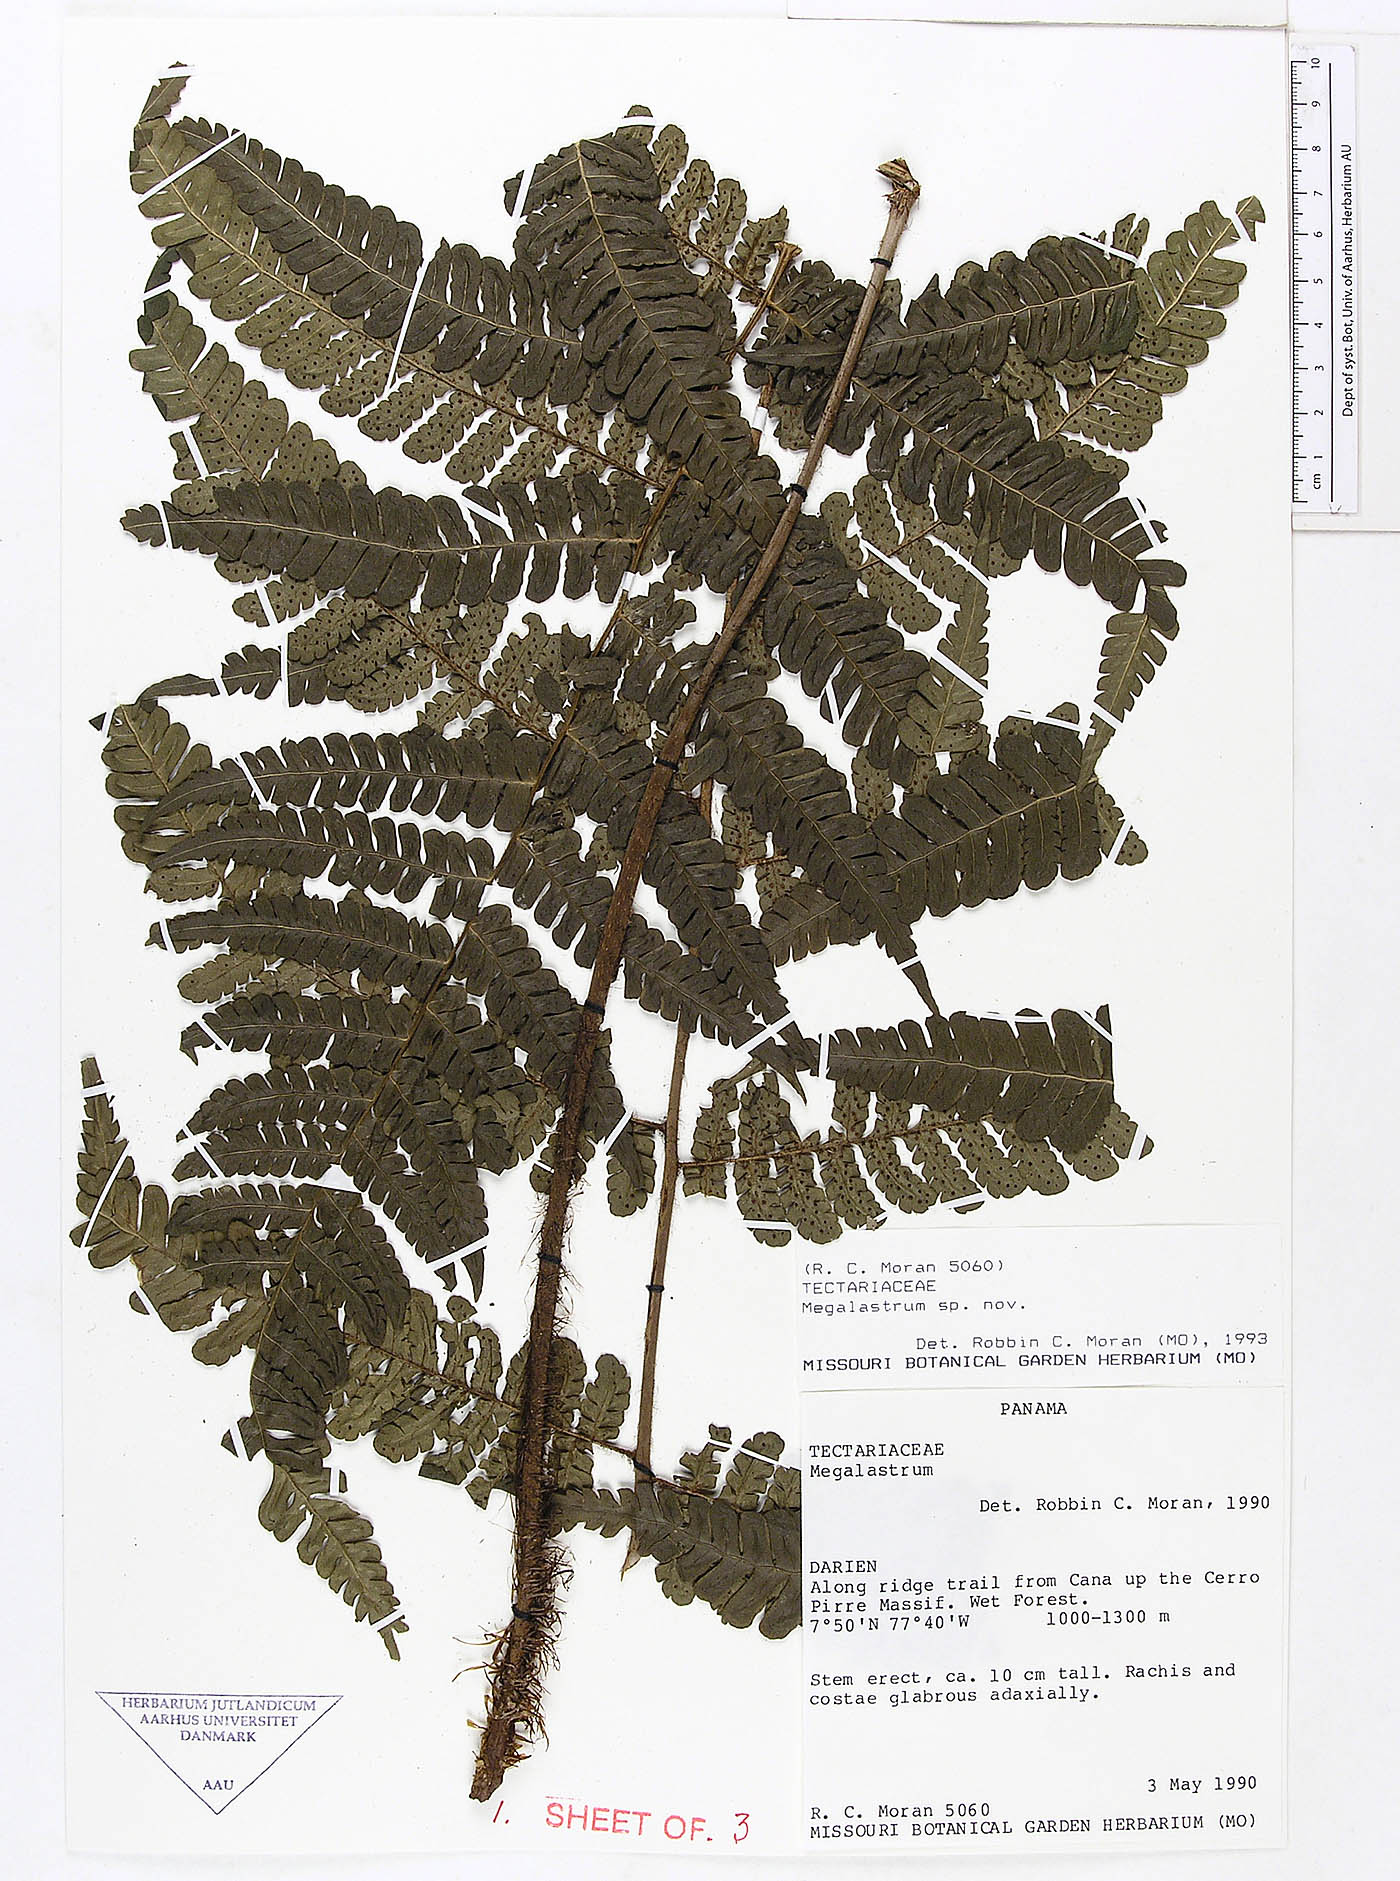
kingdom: Plantae
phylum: Tracheophyta
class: Polypodiopsida
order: Polypodiales
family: Dryopteridaceae
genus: Megalastrum
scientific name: Megalastrum reductum
